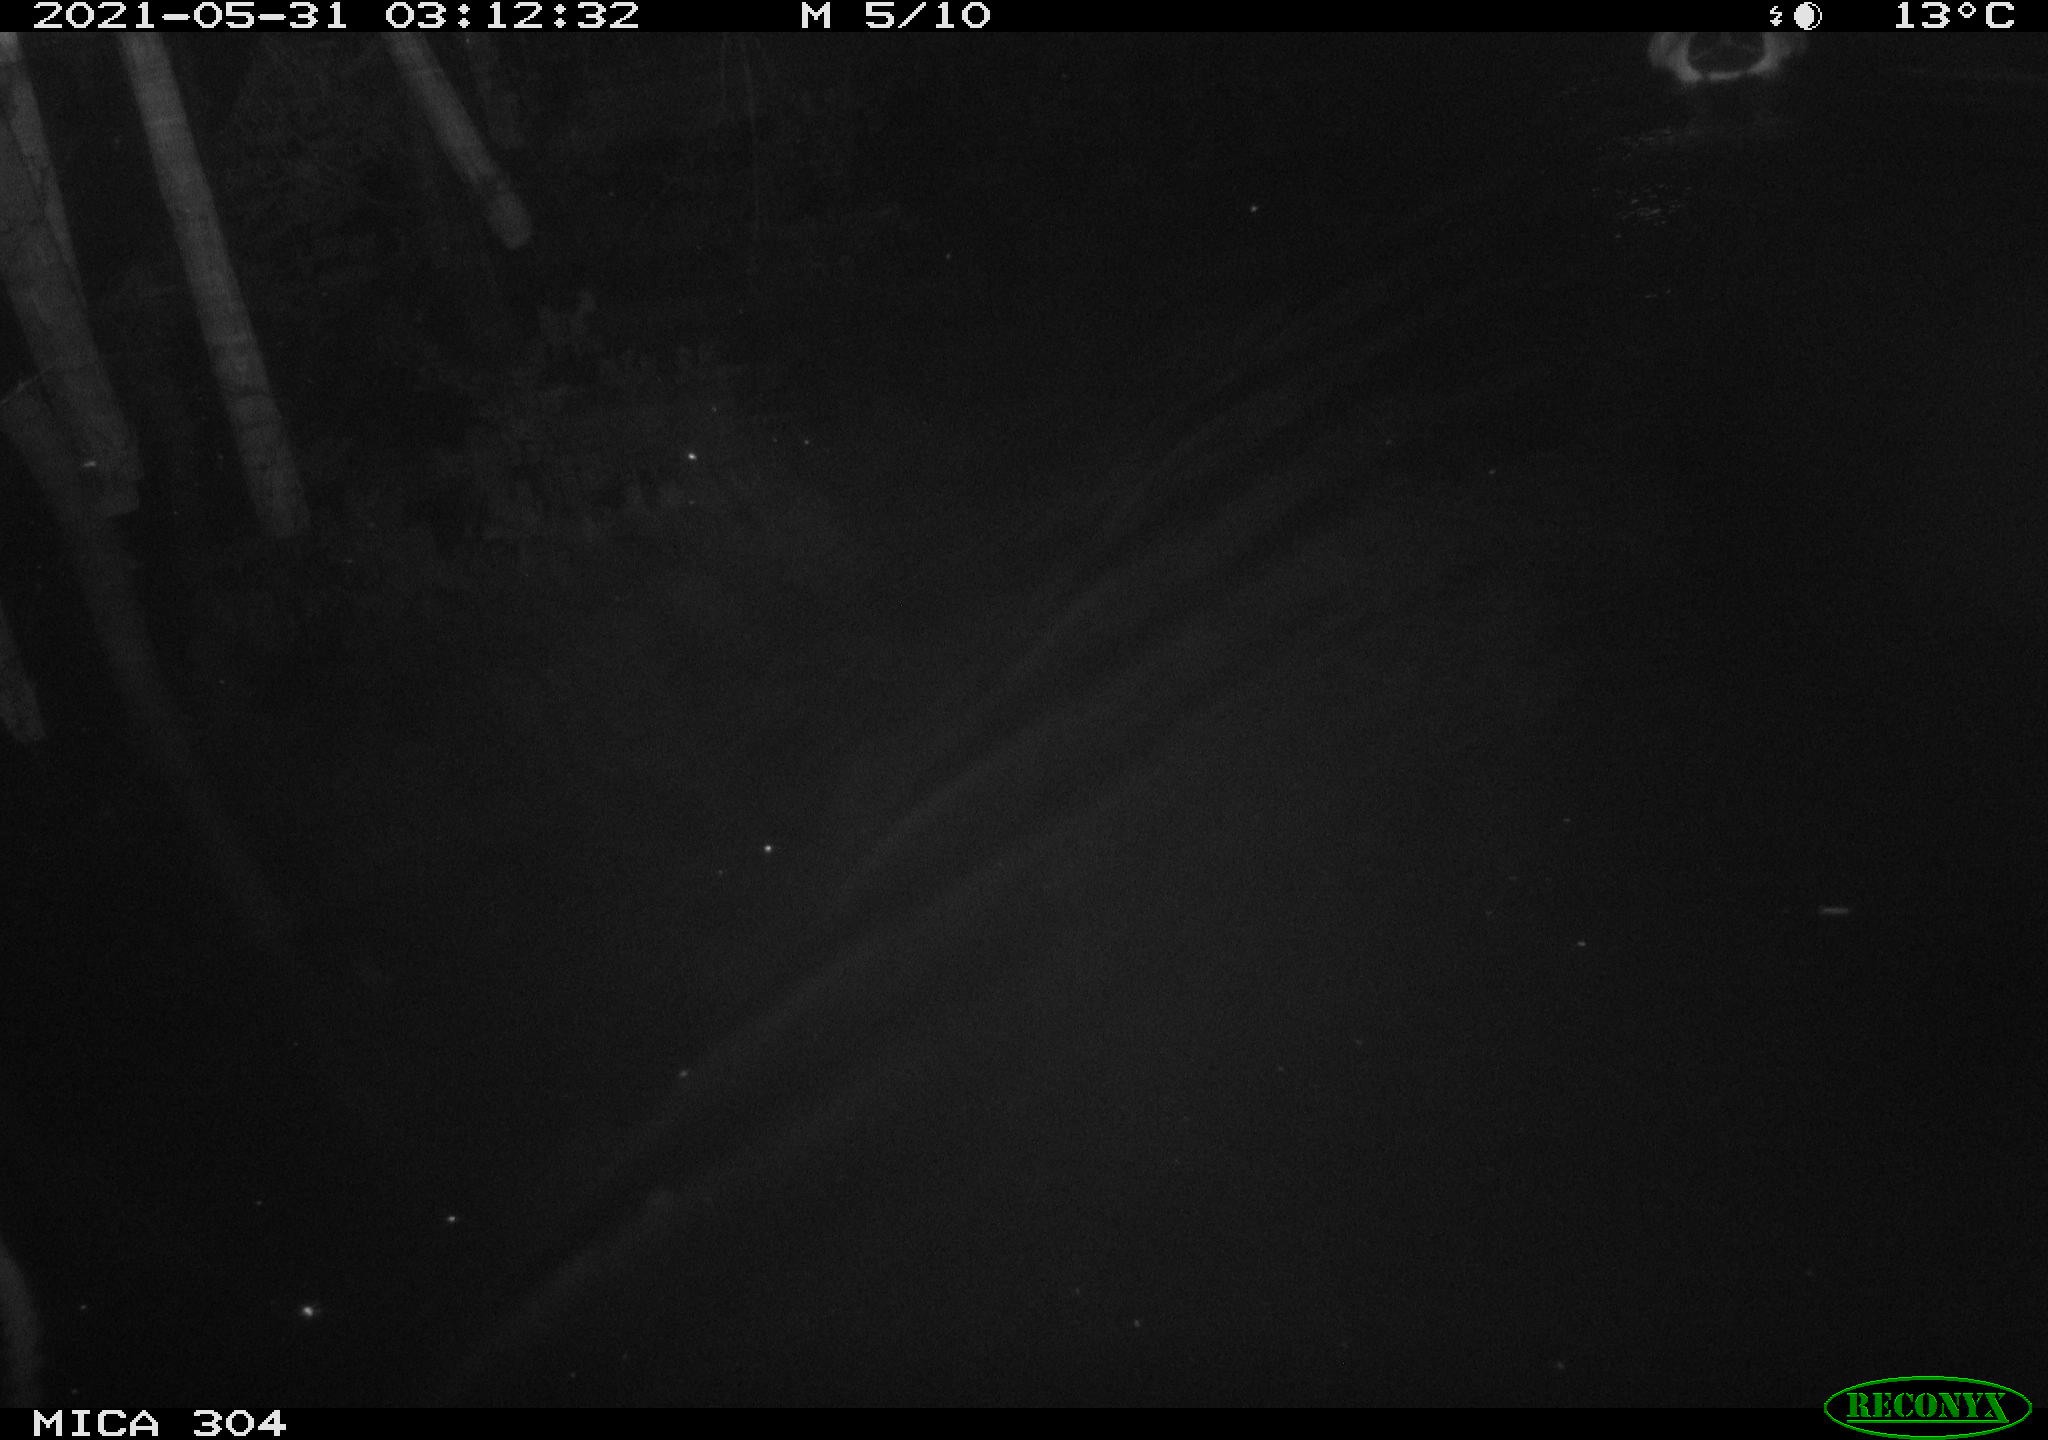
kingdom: Animalia
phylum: Chordata
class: Aves
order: Anseriformes
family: Anatidae
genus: Anas
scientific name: Anas platyrhynchos
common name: Mallard
